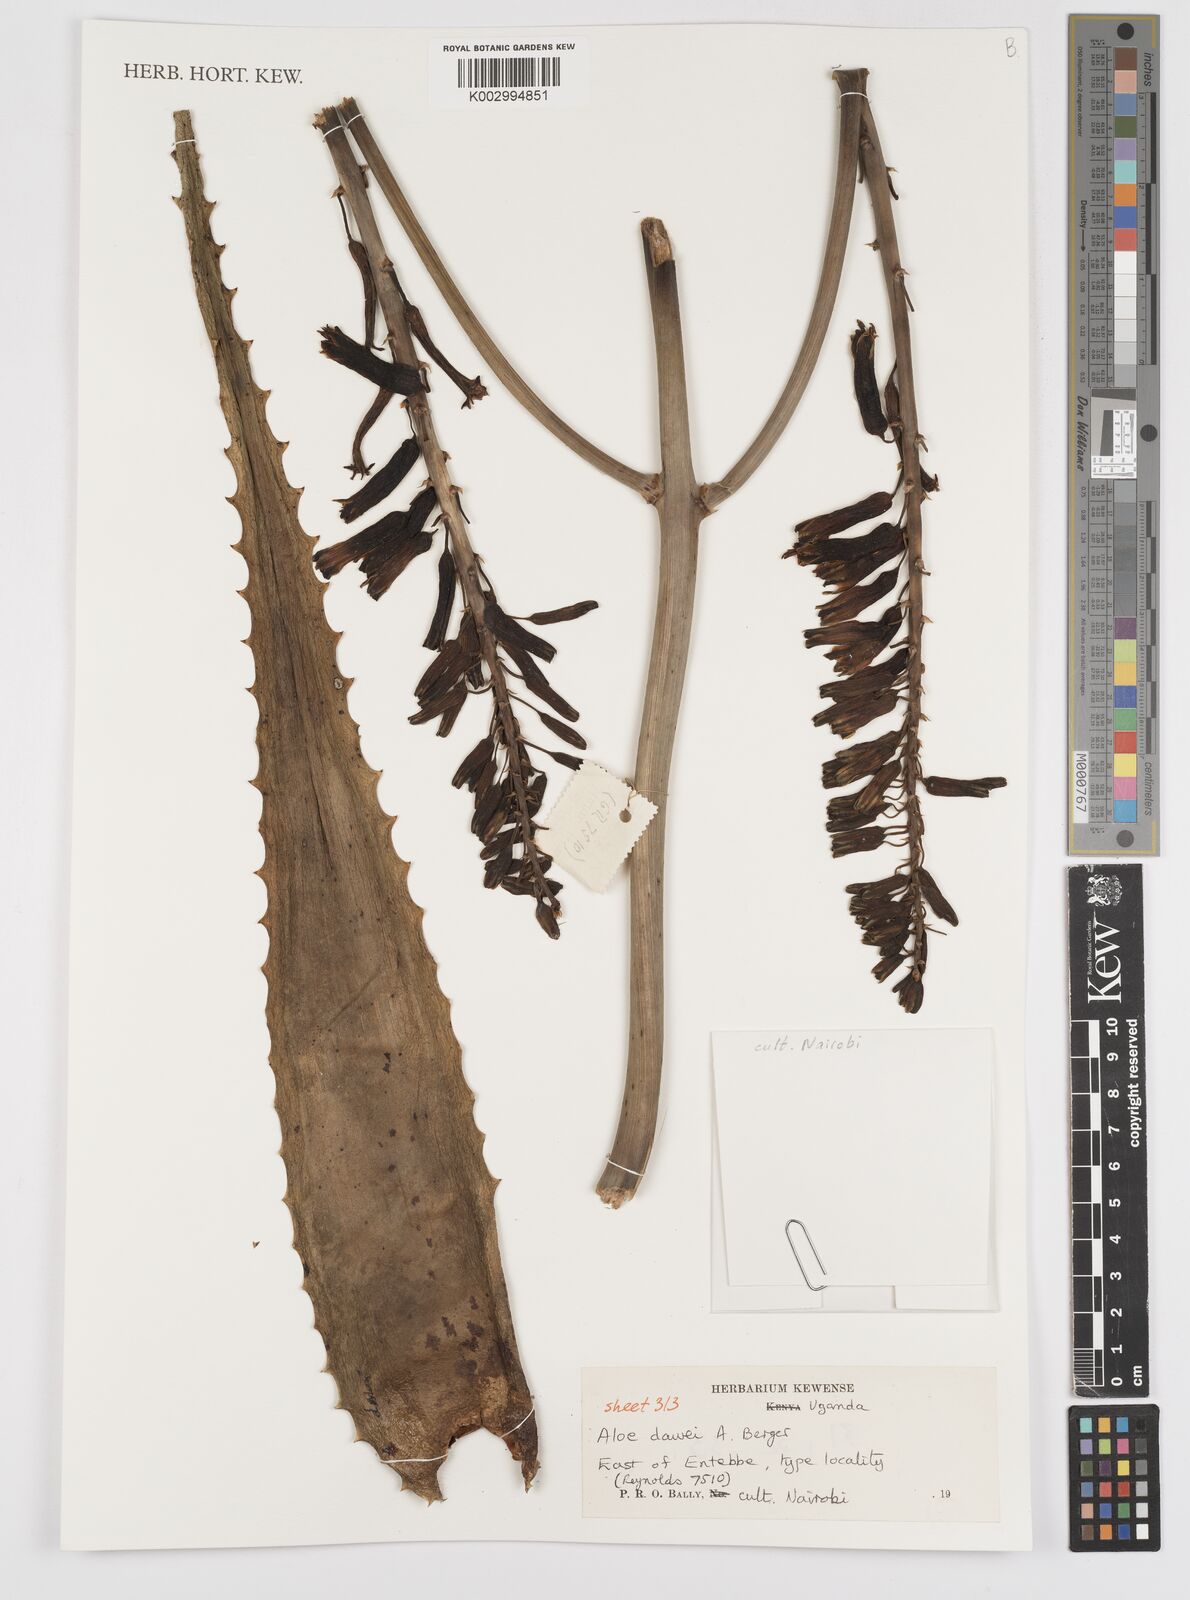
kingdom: Plantae
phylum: Tracheophyta
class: Liliopsida
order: Asparagales
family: Asphodelaceae
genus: Aloe
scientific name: Aloe dawei
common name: Orange flame aloe
